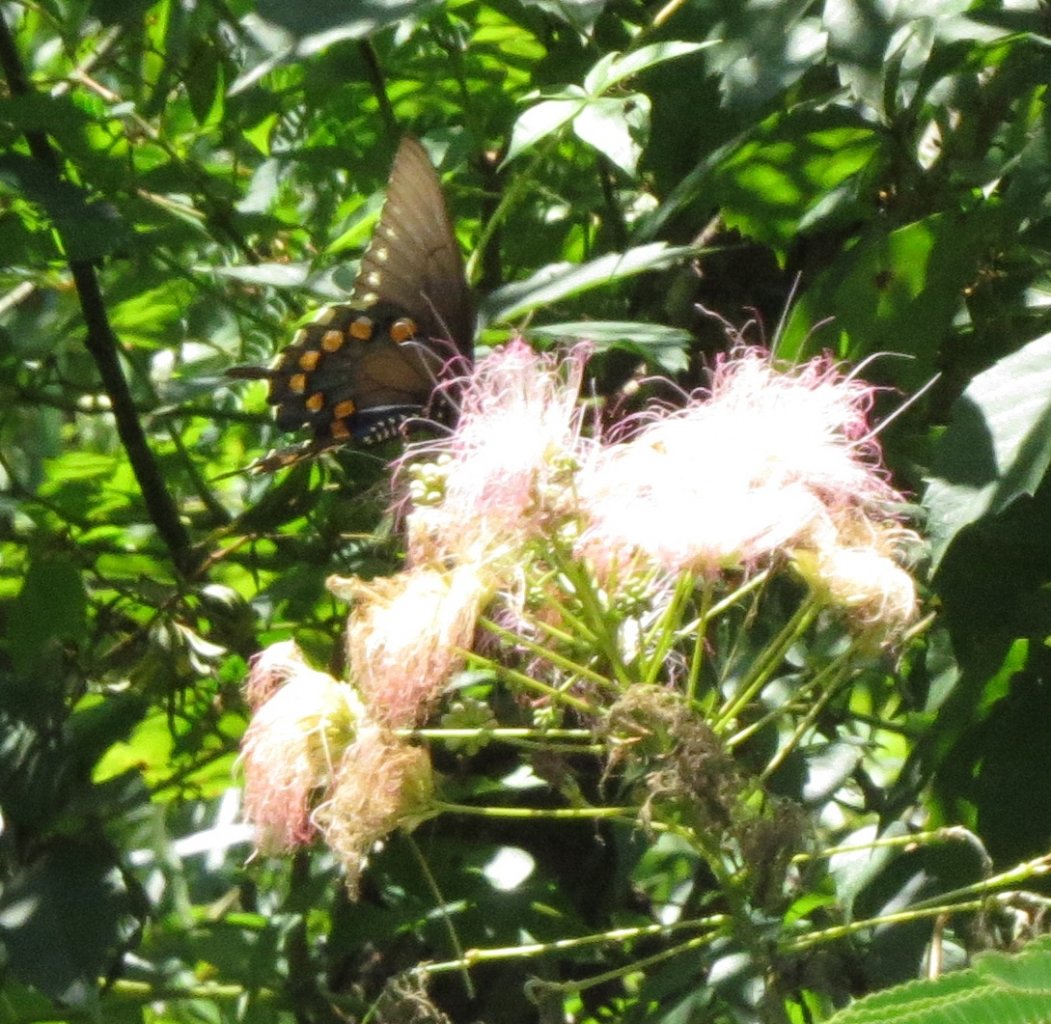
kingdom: Animalia
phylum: Arthropoda
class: Insecta
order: Lepidoptera
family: Papilionidae
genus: Battus
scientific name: Battus philenor
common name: Pipevine Swallowtail
